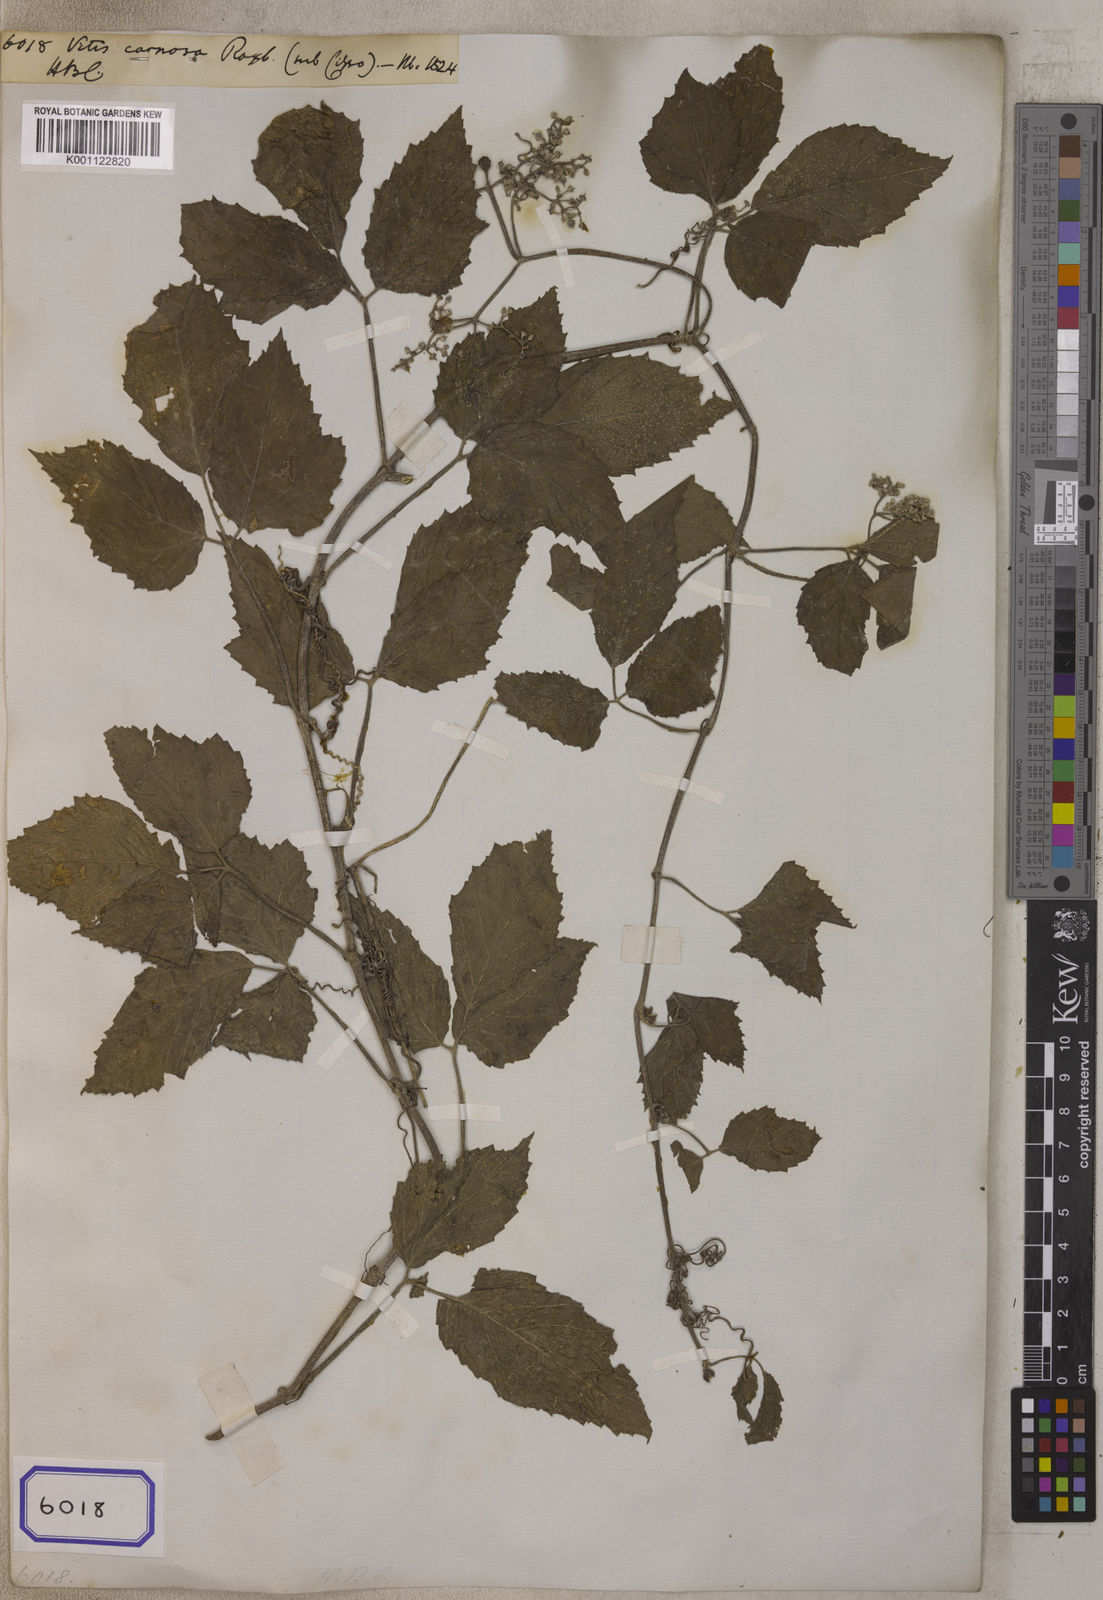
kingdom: Plantae
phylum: Tracheophyta
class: Magnoliopsida
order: Vitales
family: Vitaceae
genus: Vitis
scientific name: Vitis
